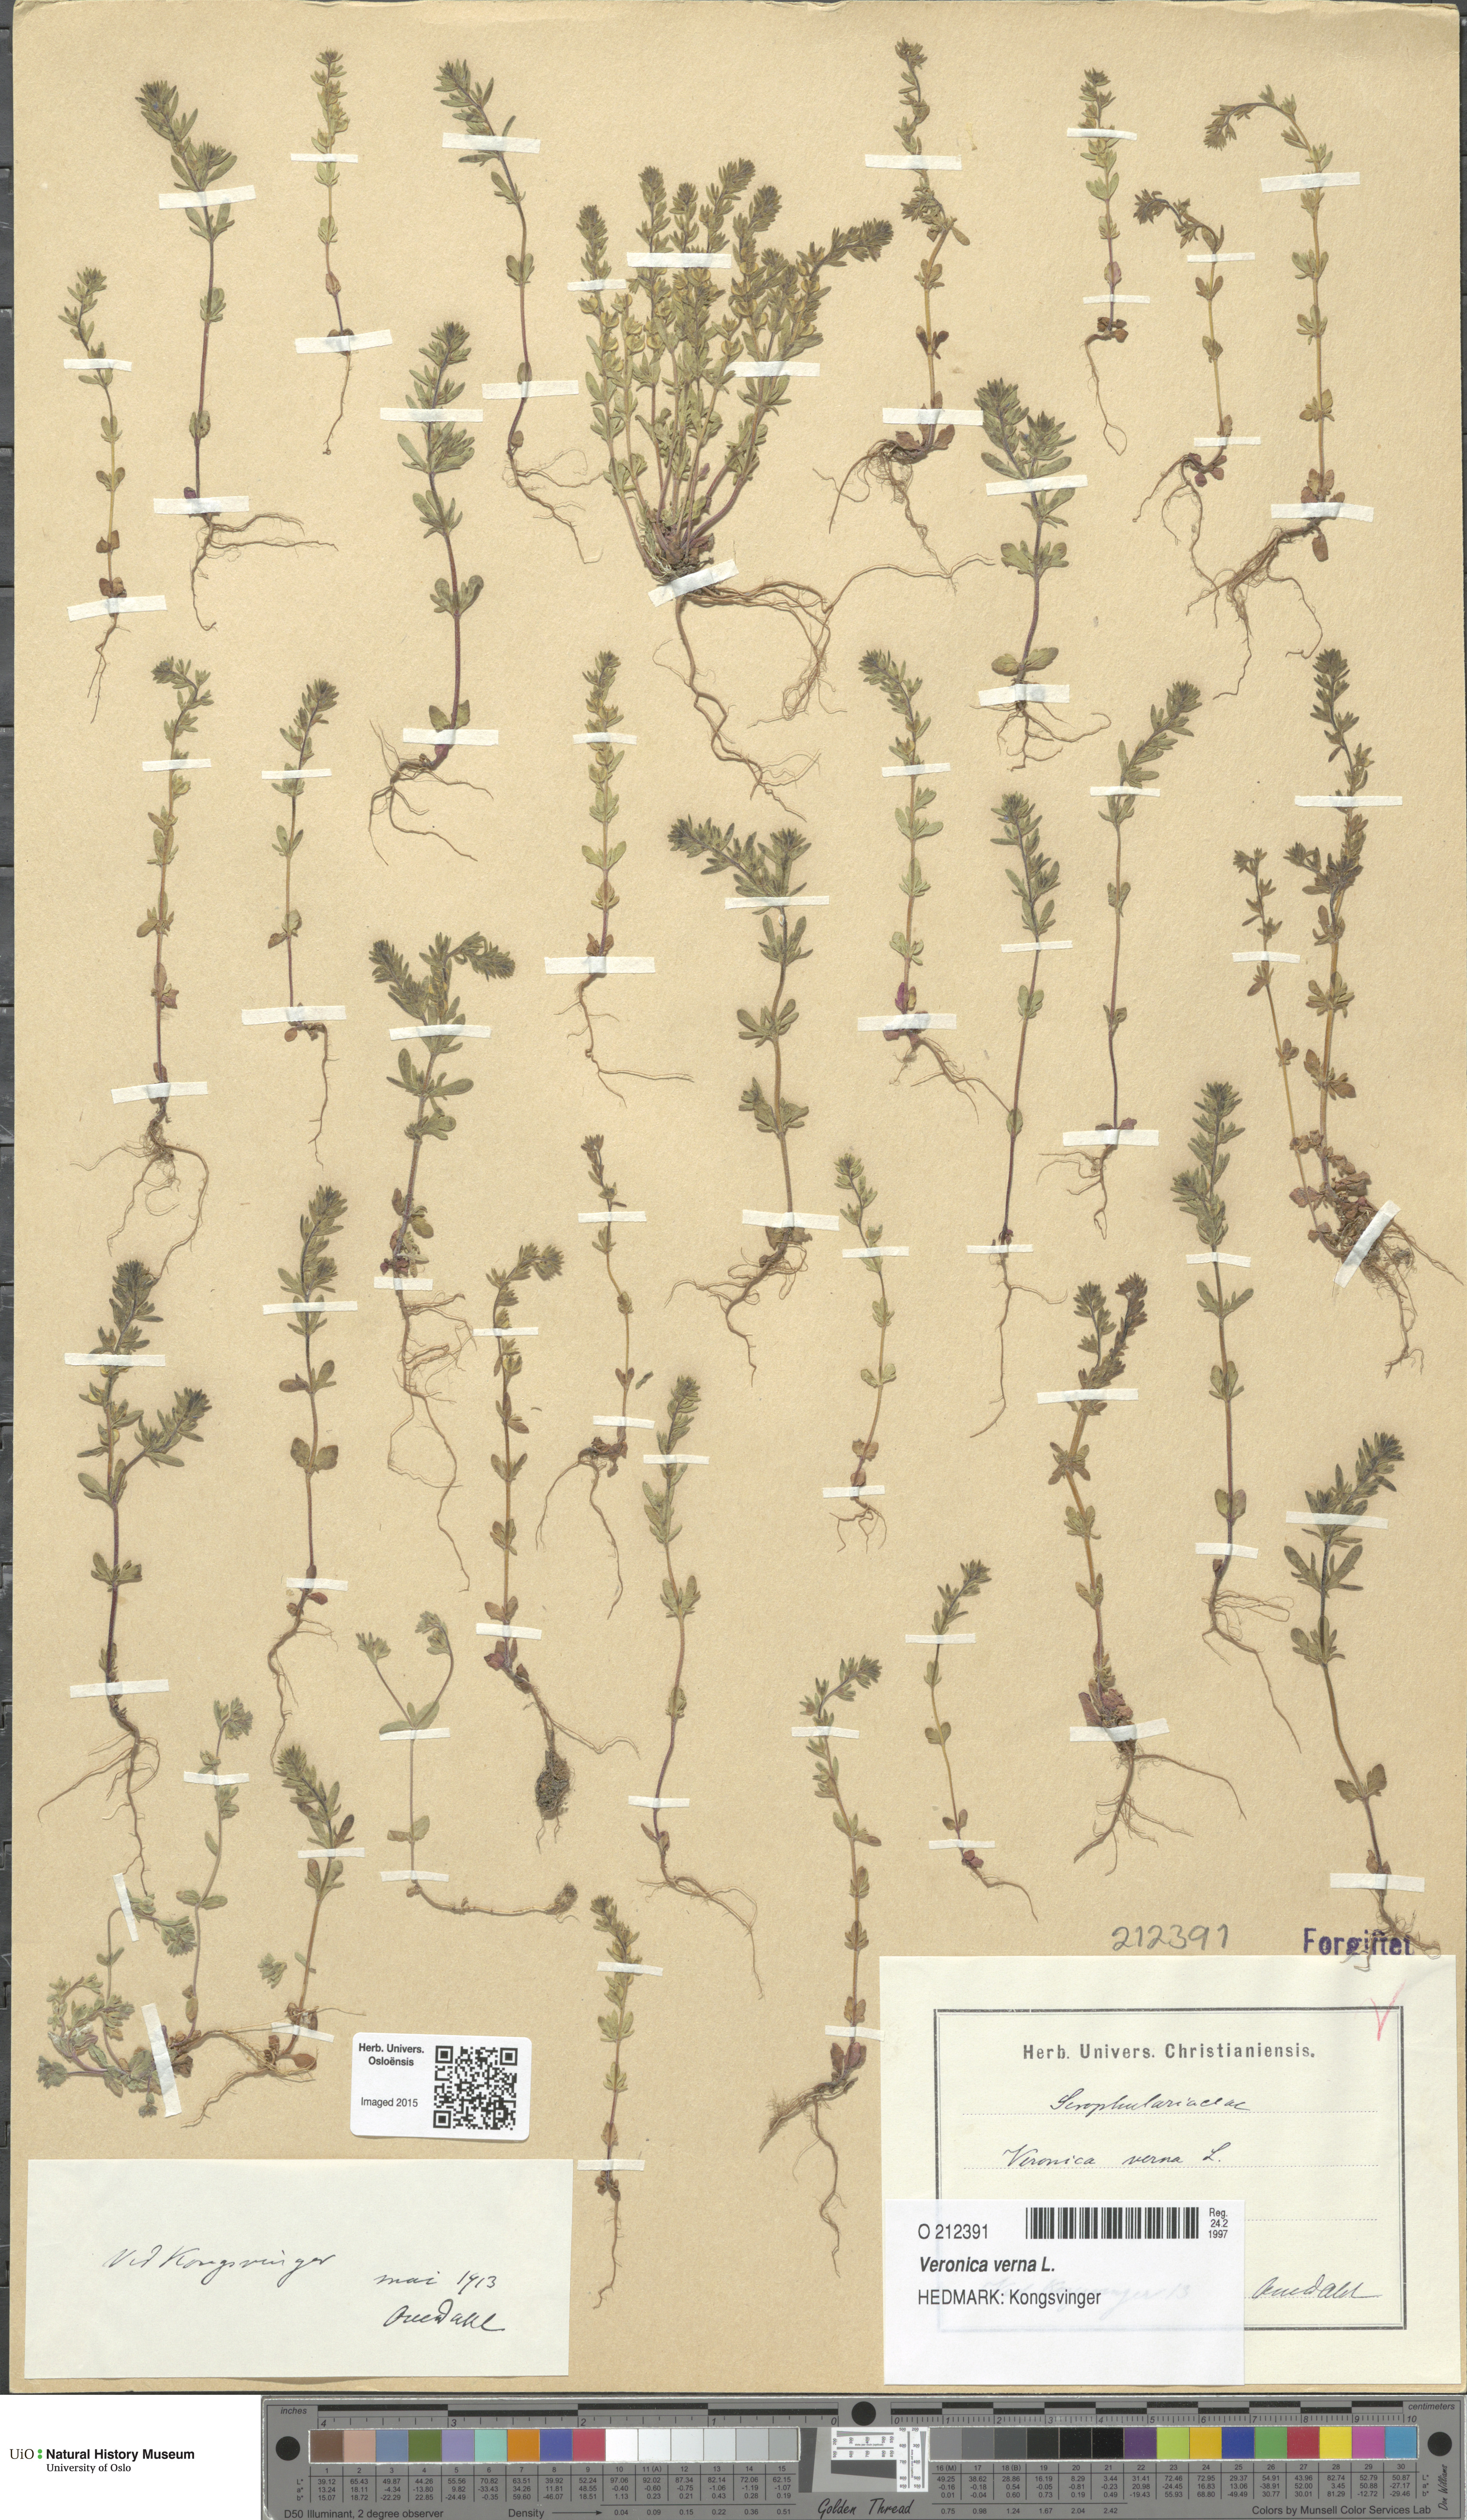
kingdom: Plantae
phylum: Tracheophyta
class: Magnoliopsida
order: Lamiales
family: Plantaginaceae
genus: Veronica
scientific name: Veronica verna
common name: Spring speedwell
